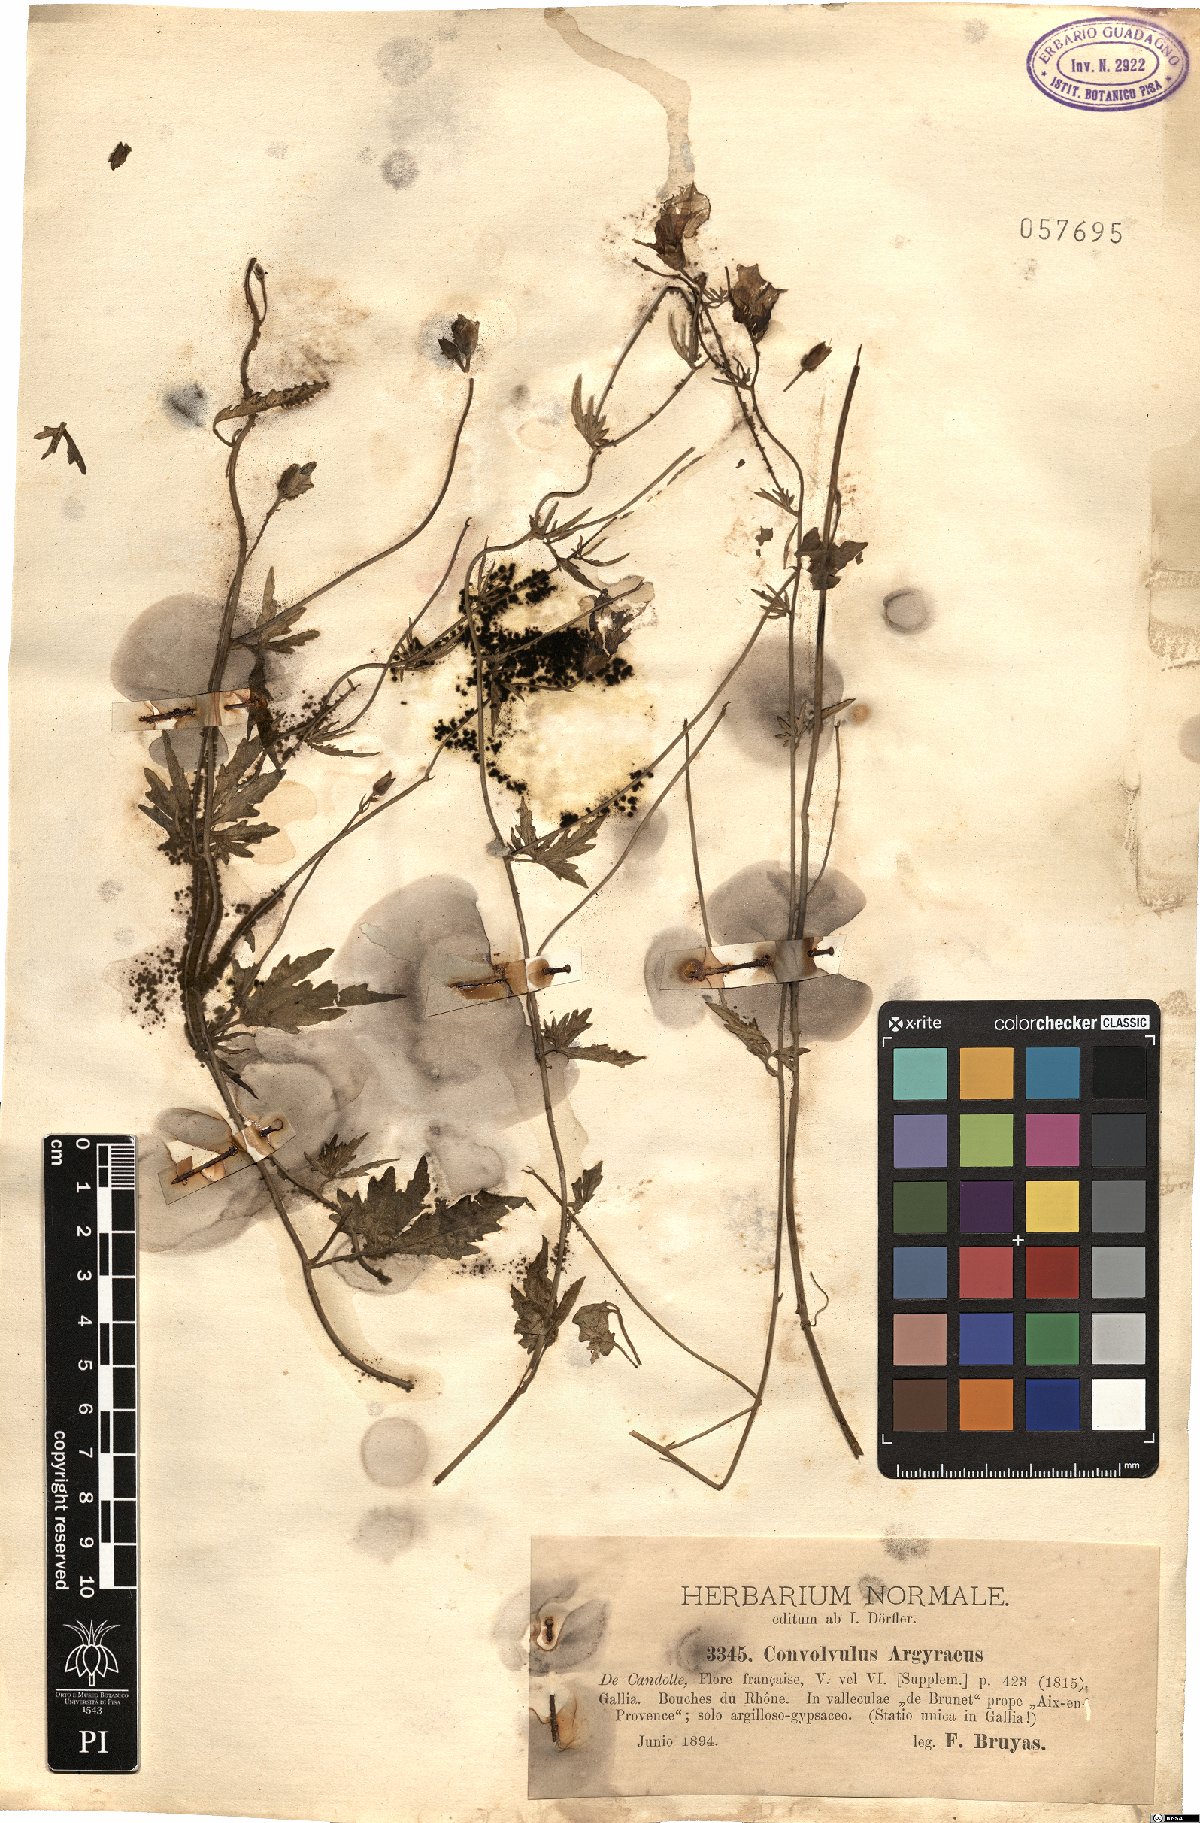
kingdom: Plantae
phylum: Tracheophyta
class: Magnoliopsida
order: Solanales
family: Convolvulaceae
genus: Convolvulus
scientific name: Convolvulus althaeoides
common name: Mallow bindweed
